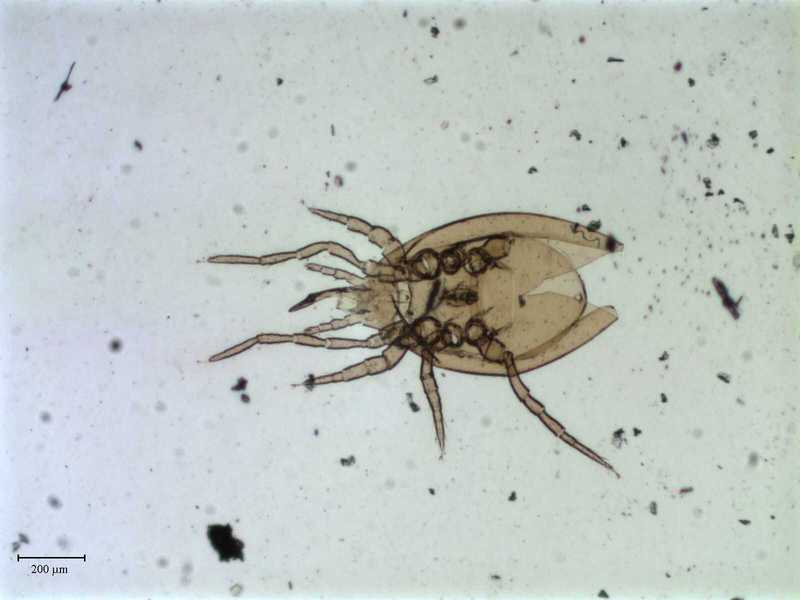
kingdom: Animalia
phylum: Arthropoda
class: Arachnida
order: Mesostigmata
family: Parasitidae
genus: Pergamasus
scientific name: Pergamasus
